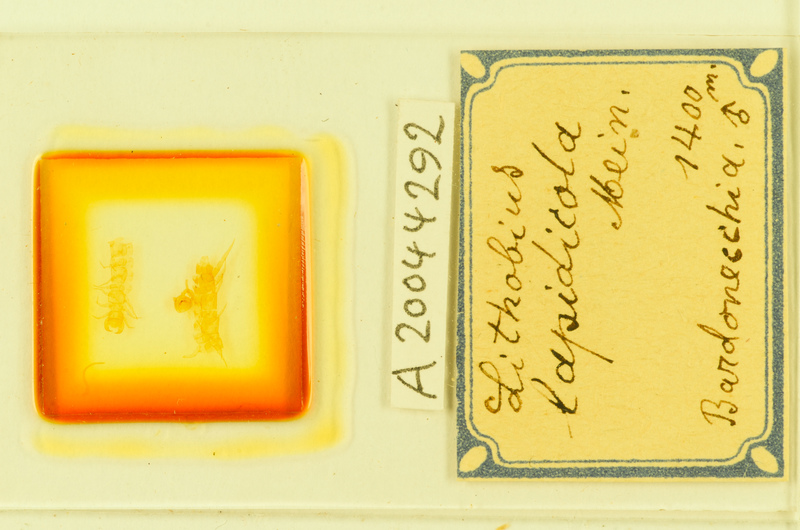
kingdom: Animalia
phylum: Arthropoda
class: Chilopoda
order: Lithobiomorpha
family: Lithobiidae
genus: Lithobius
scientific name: Lithobius lapidicola
